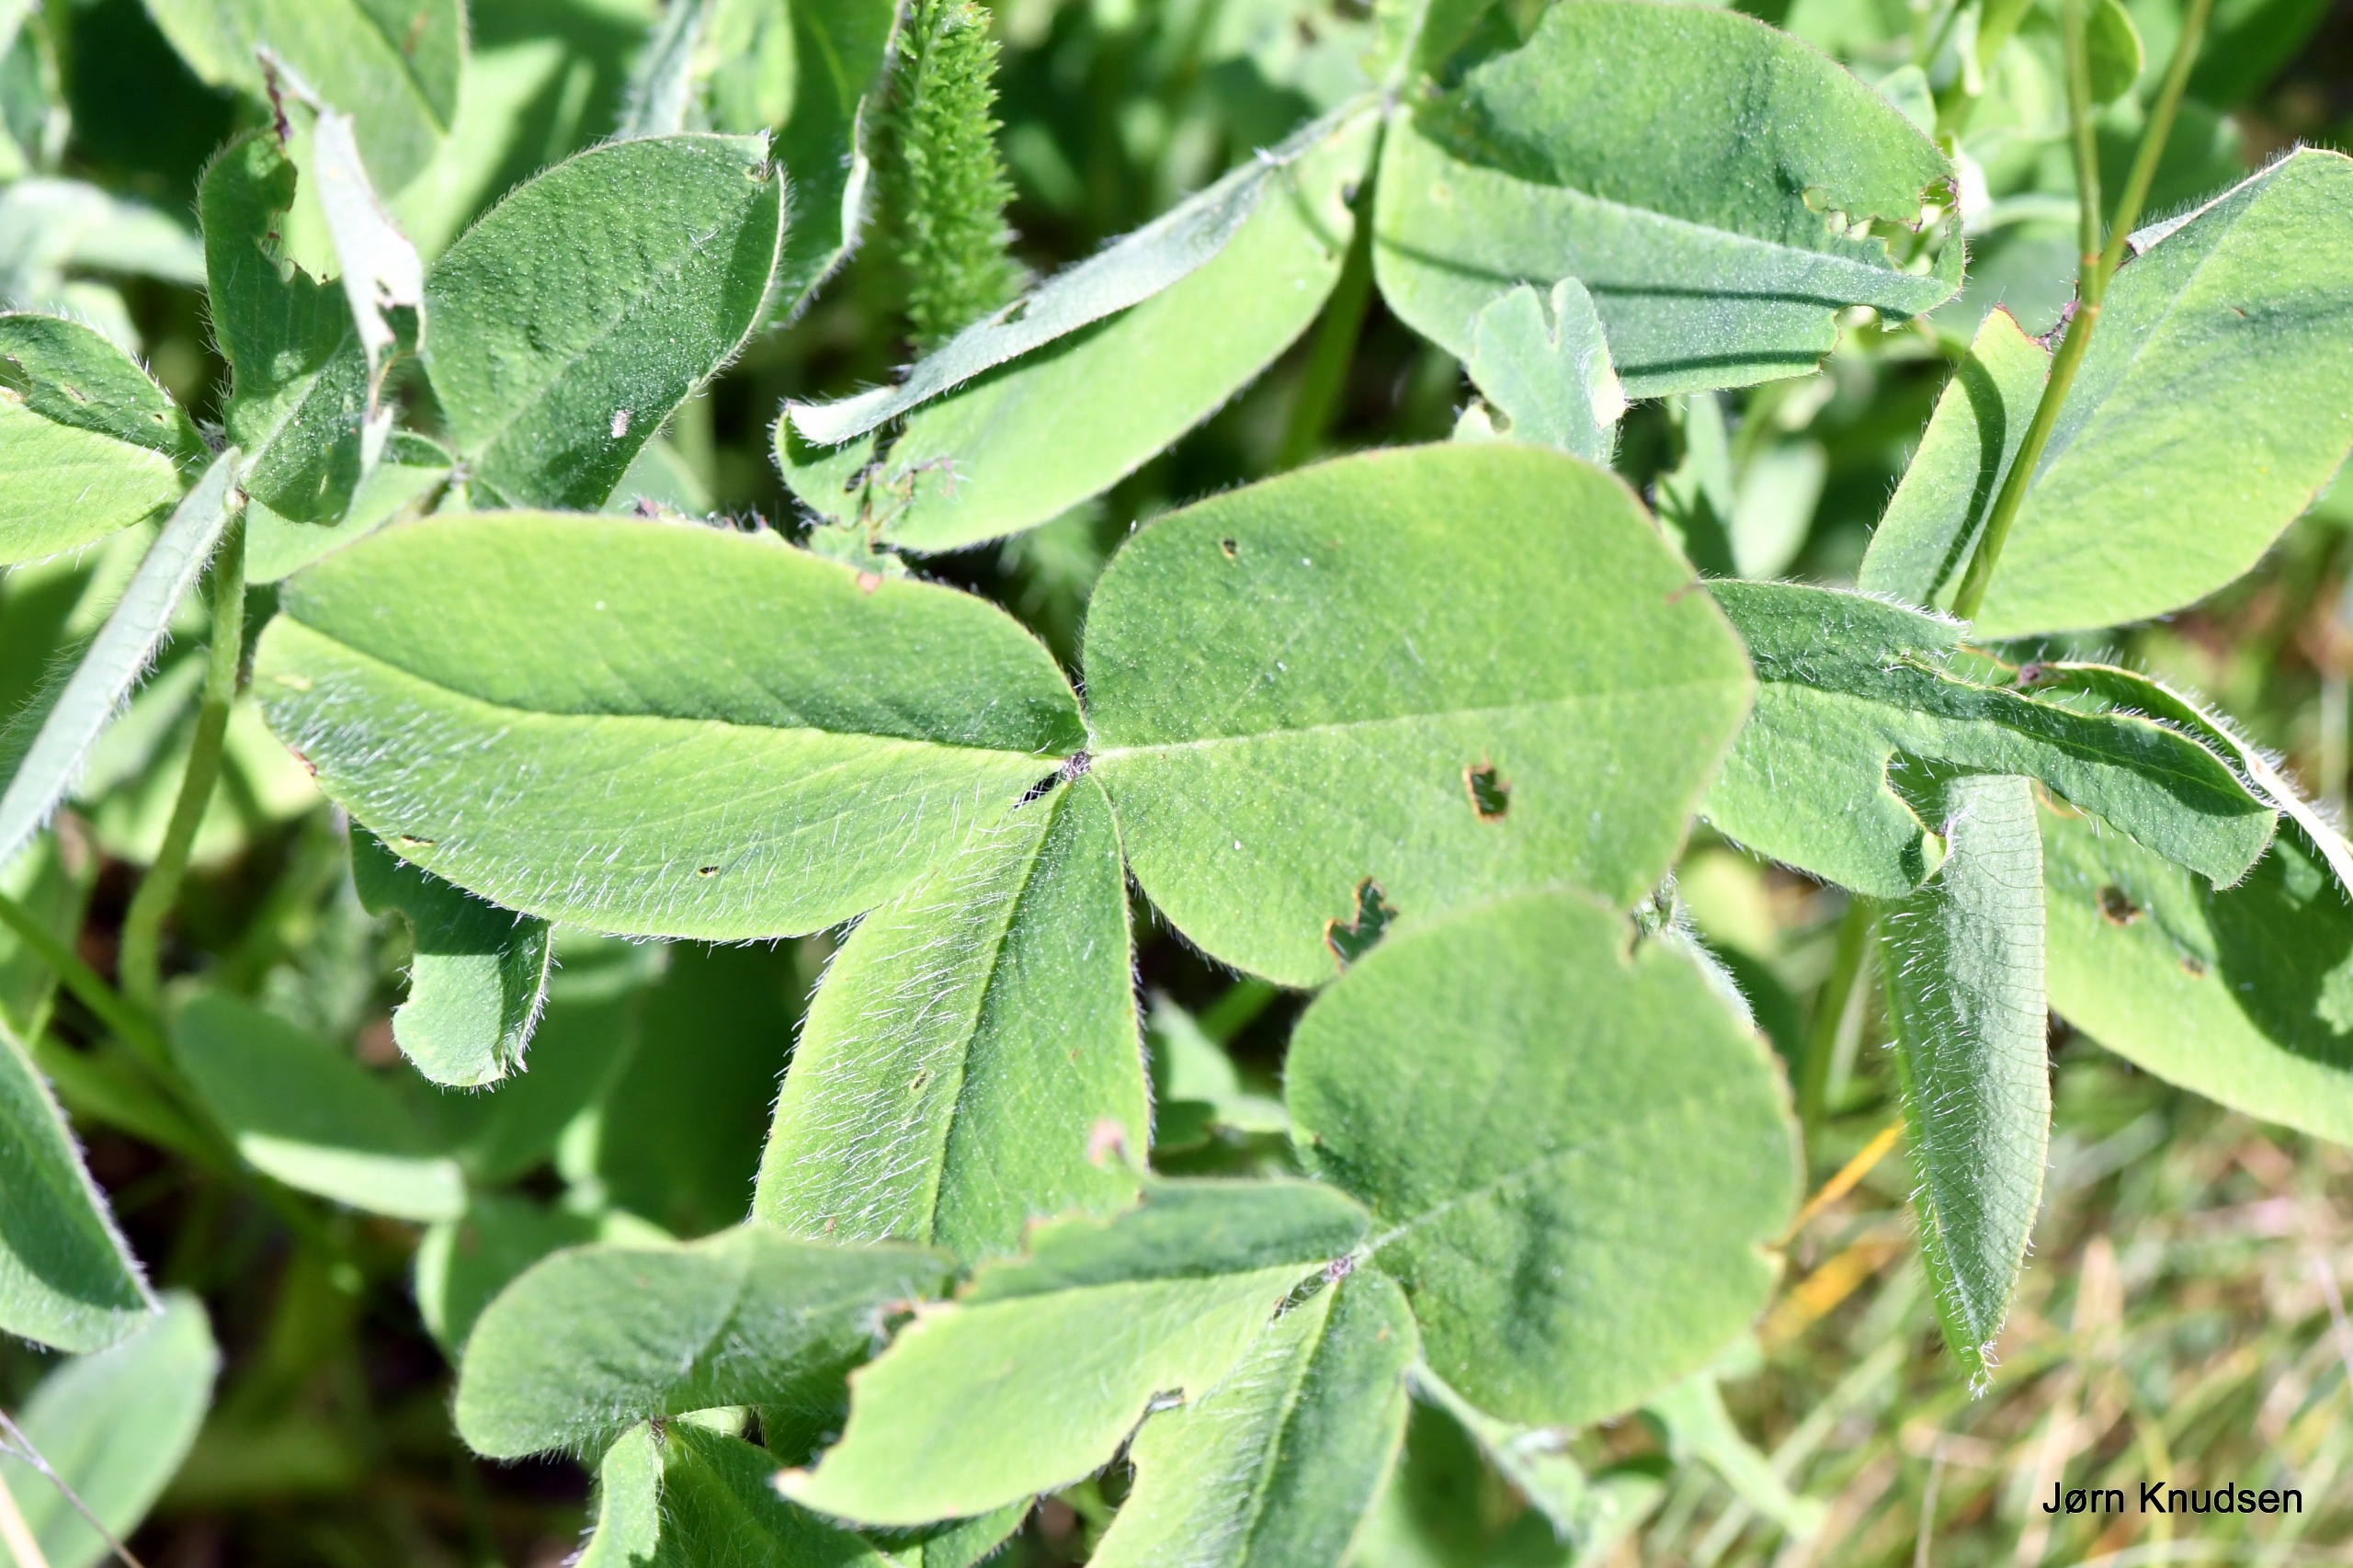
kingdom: Plantae
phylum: Tracheophyta
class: Magnoliopsida
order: Fabales
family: Fabaceae
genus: Trifolium
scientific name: Trifolium pratense
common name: Rød-kløver
